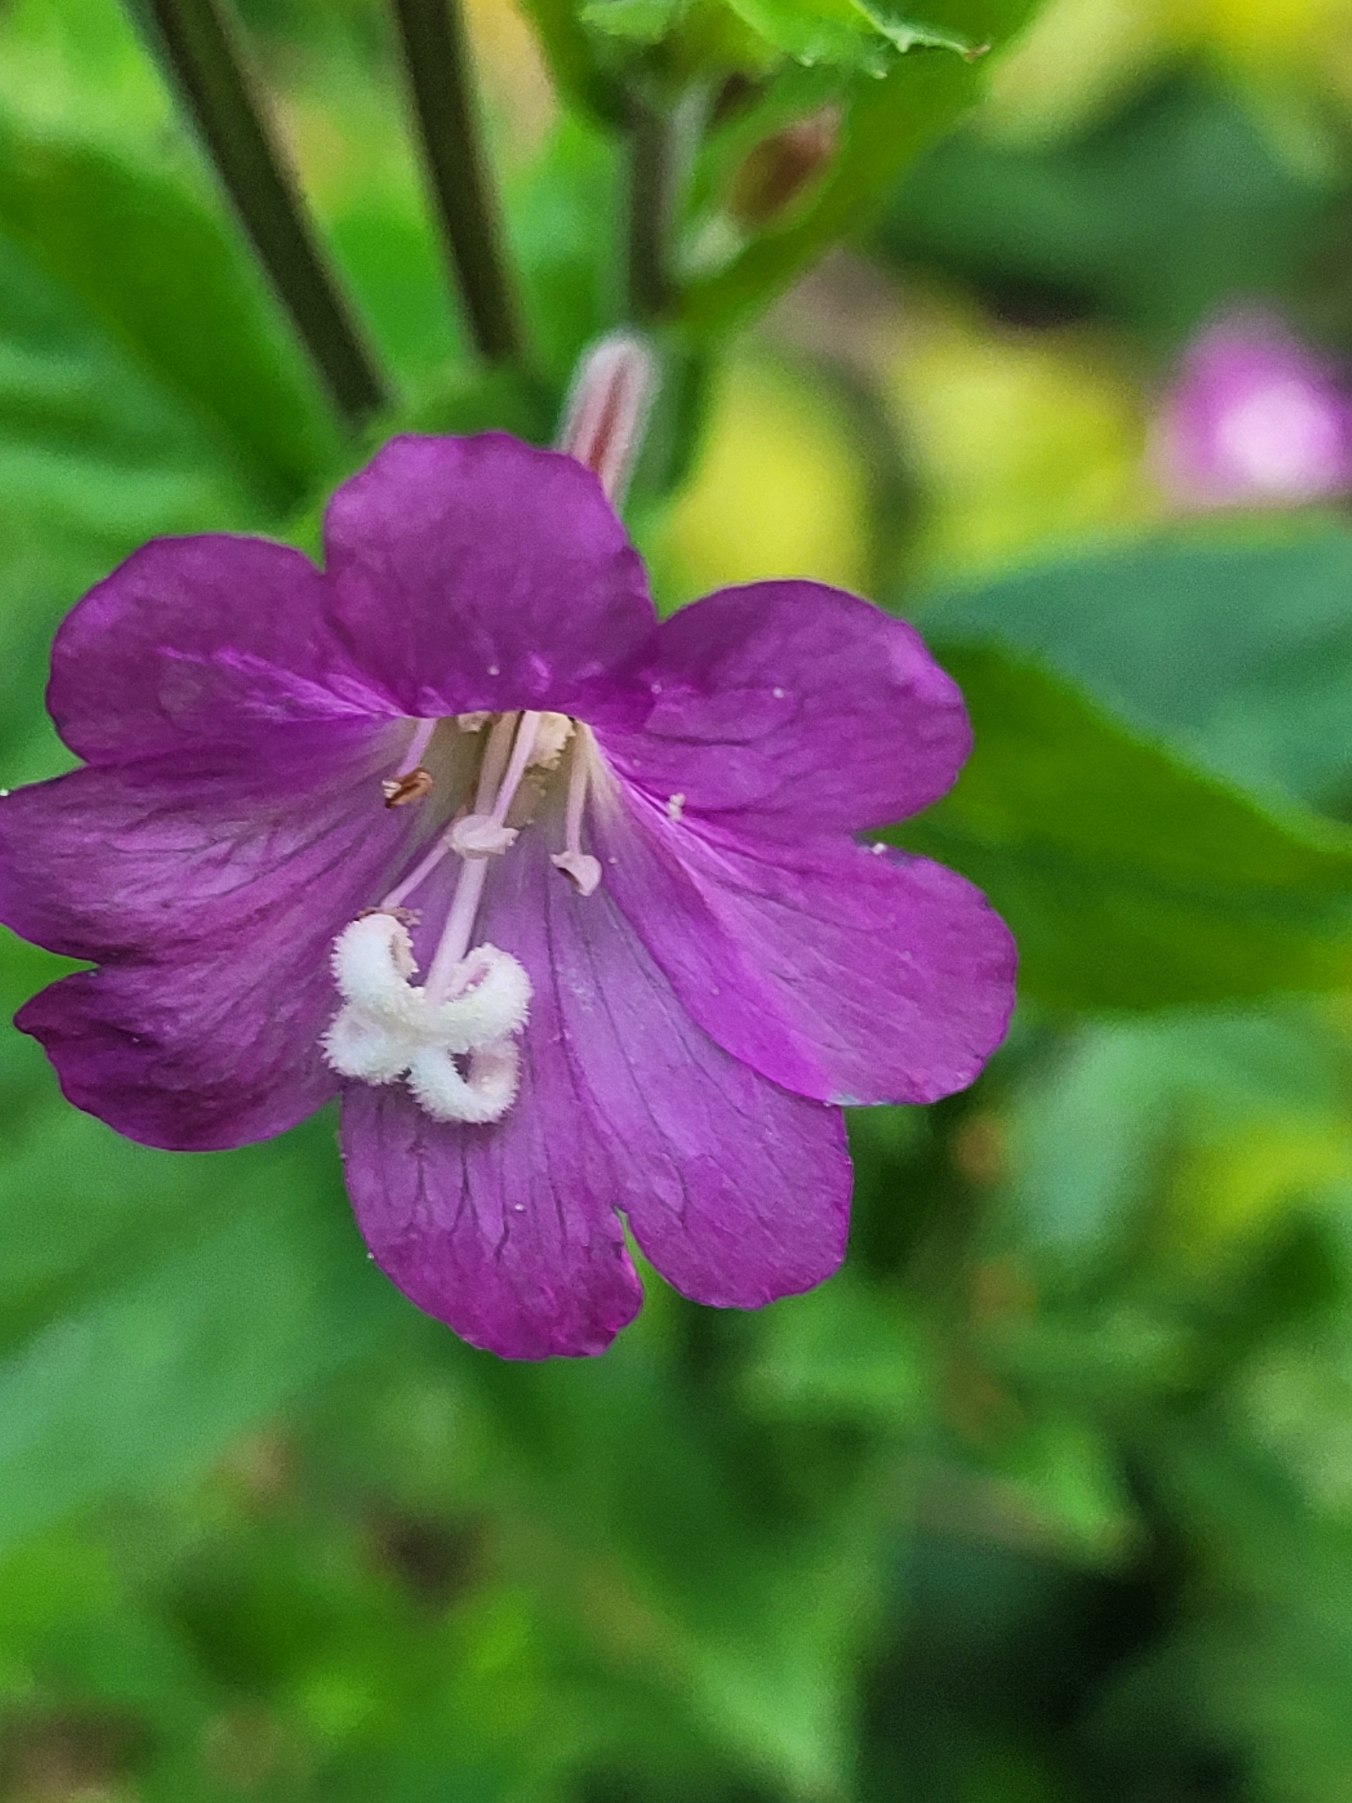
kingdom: Plantae
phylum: Tracheophyta
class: Magnoliopsida
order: Myrtales
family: Onagraceae
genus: Epilobium
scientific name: Epilobium hirsutum
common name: Lådden dueurt
